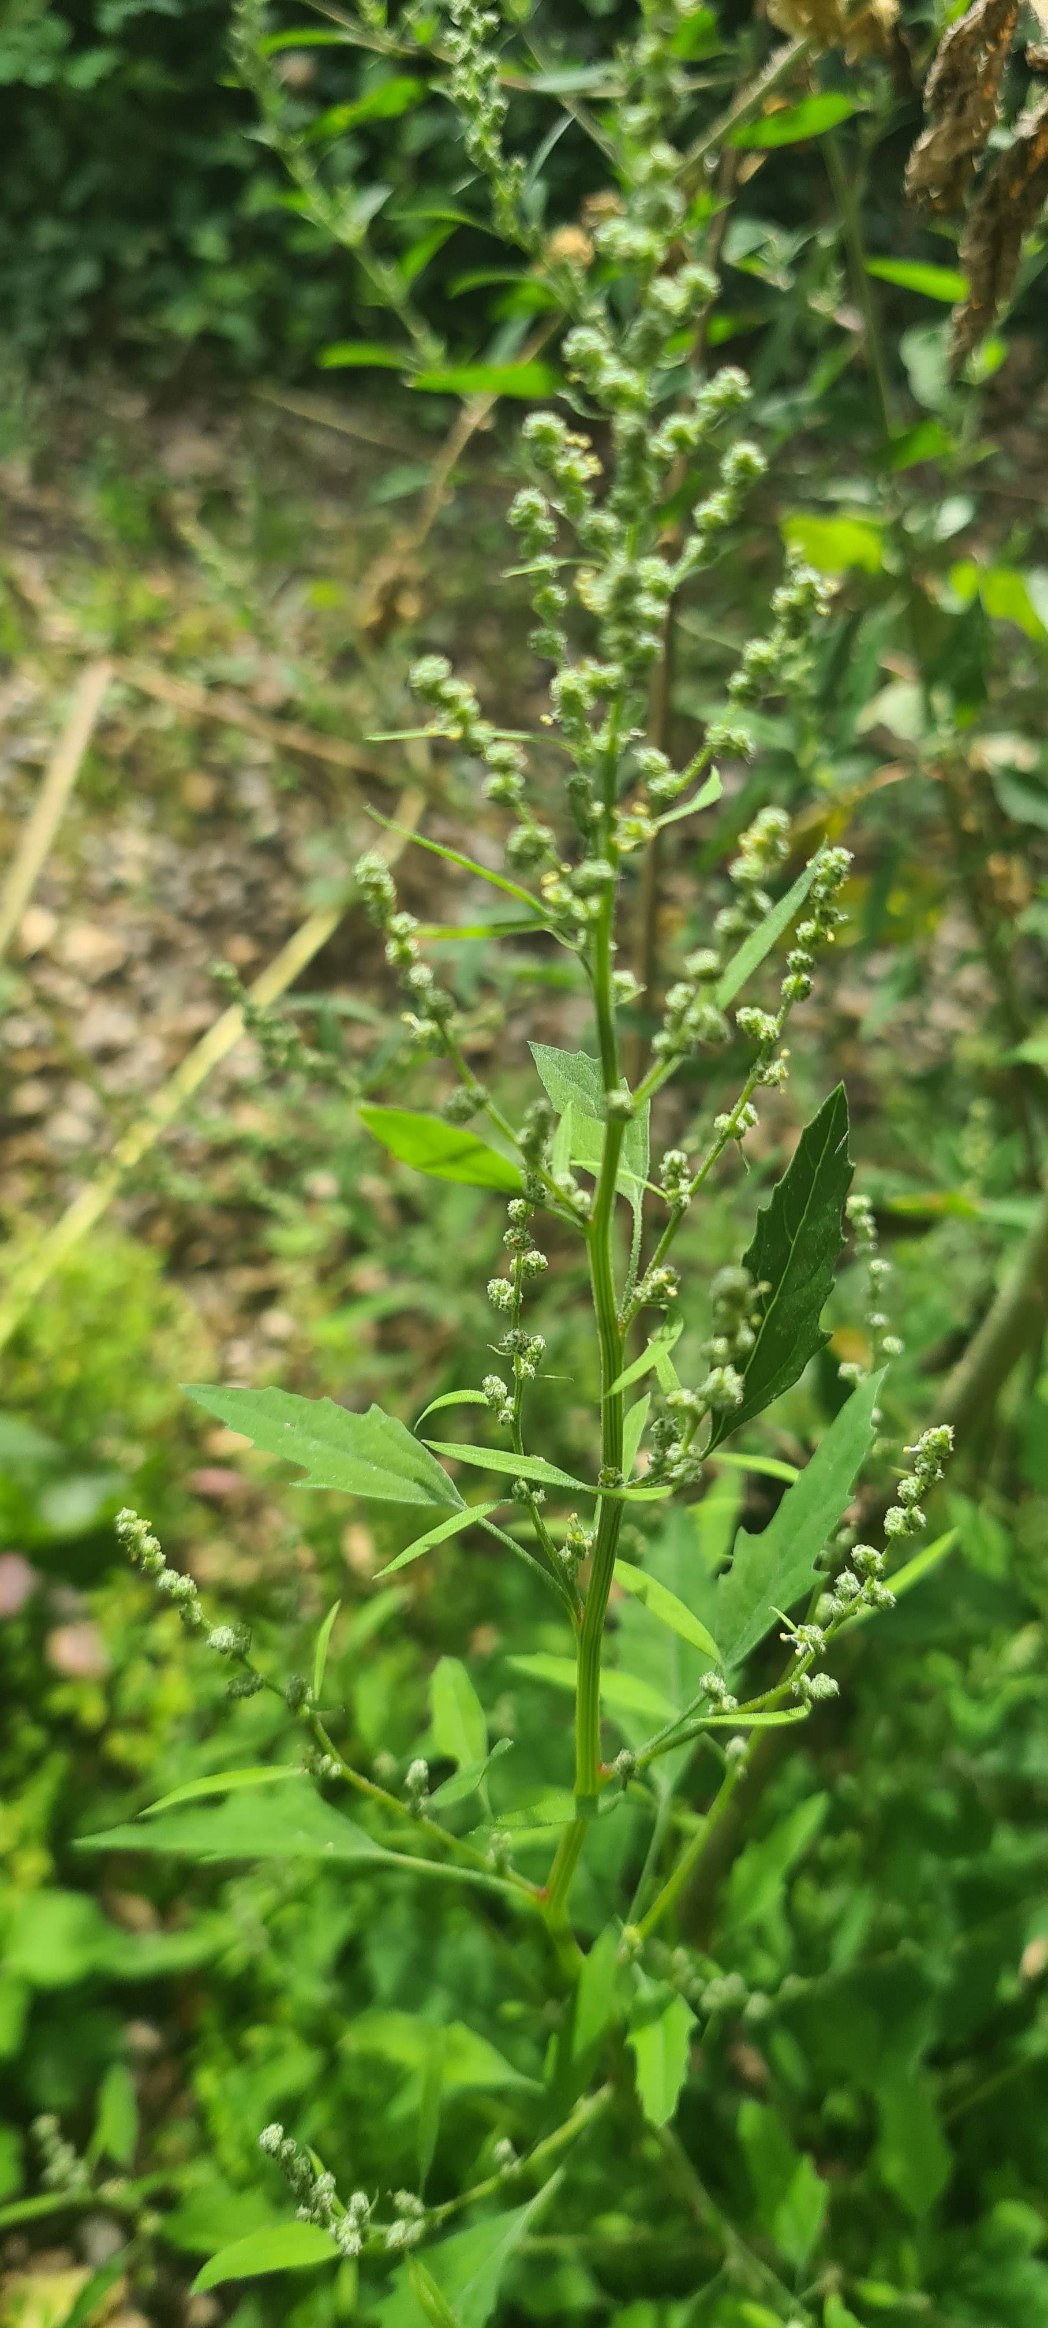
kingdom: Plantae
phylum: Tracheophyta
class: Magnoliopsida
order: Caryophyllales
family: Amaranthaceae
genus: Chenopodium
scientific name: Chenopodium album
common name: Hvidmelet gåsefod
